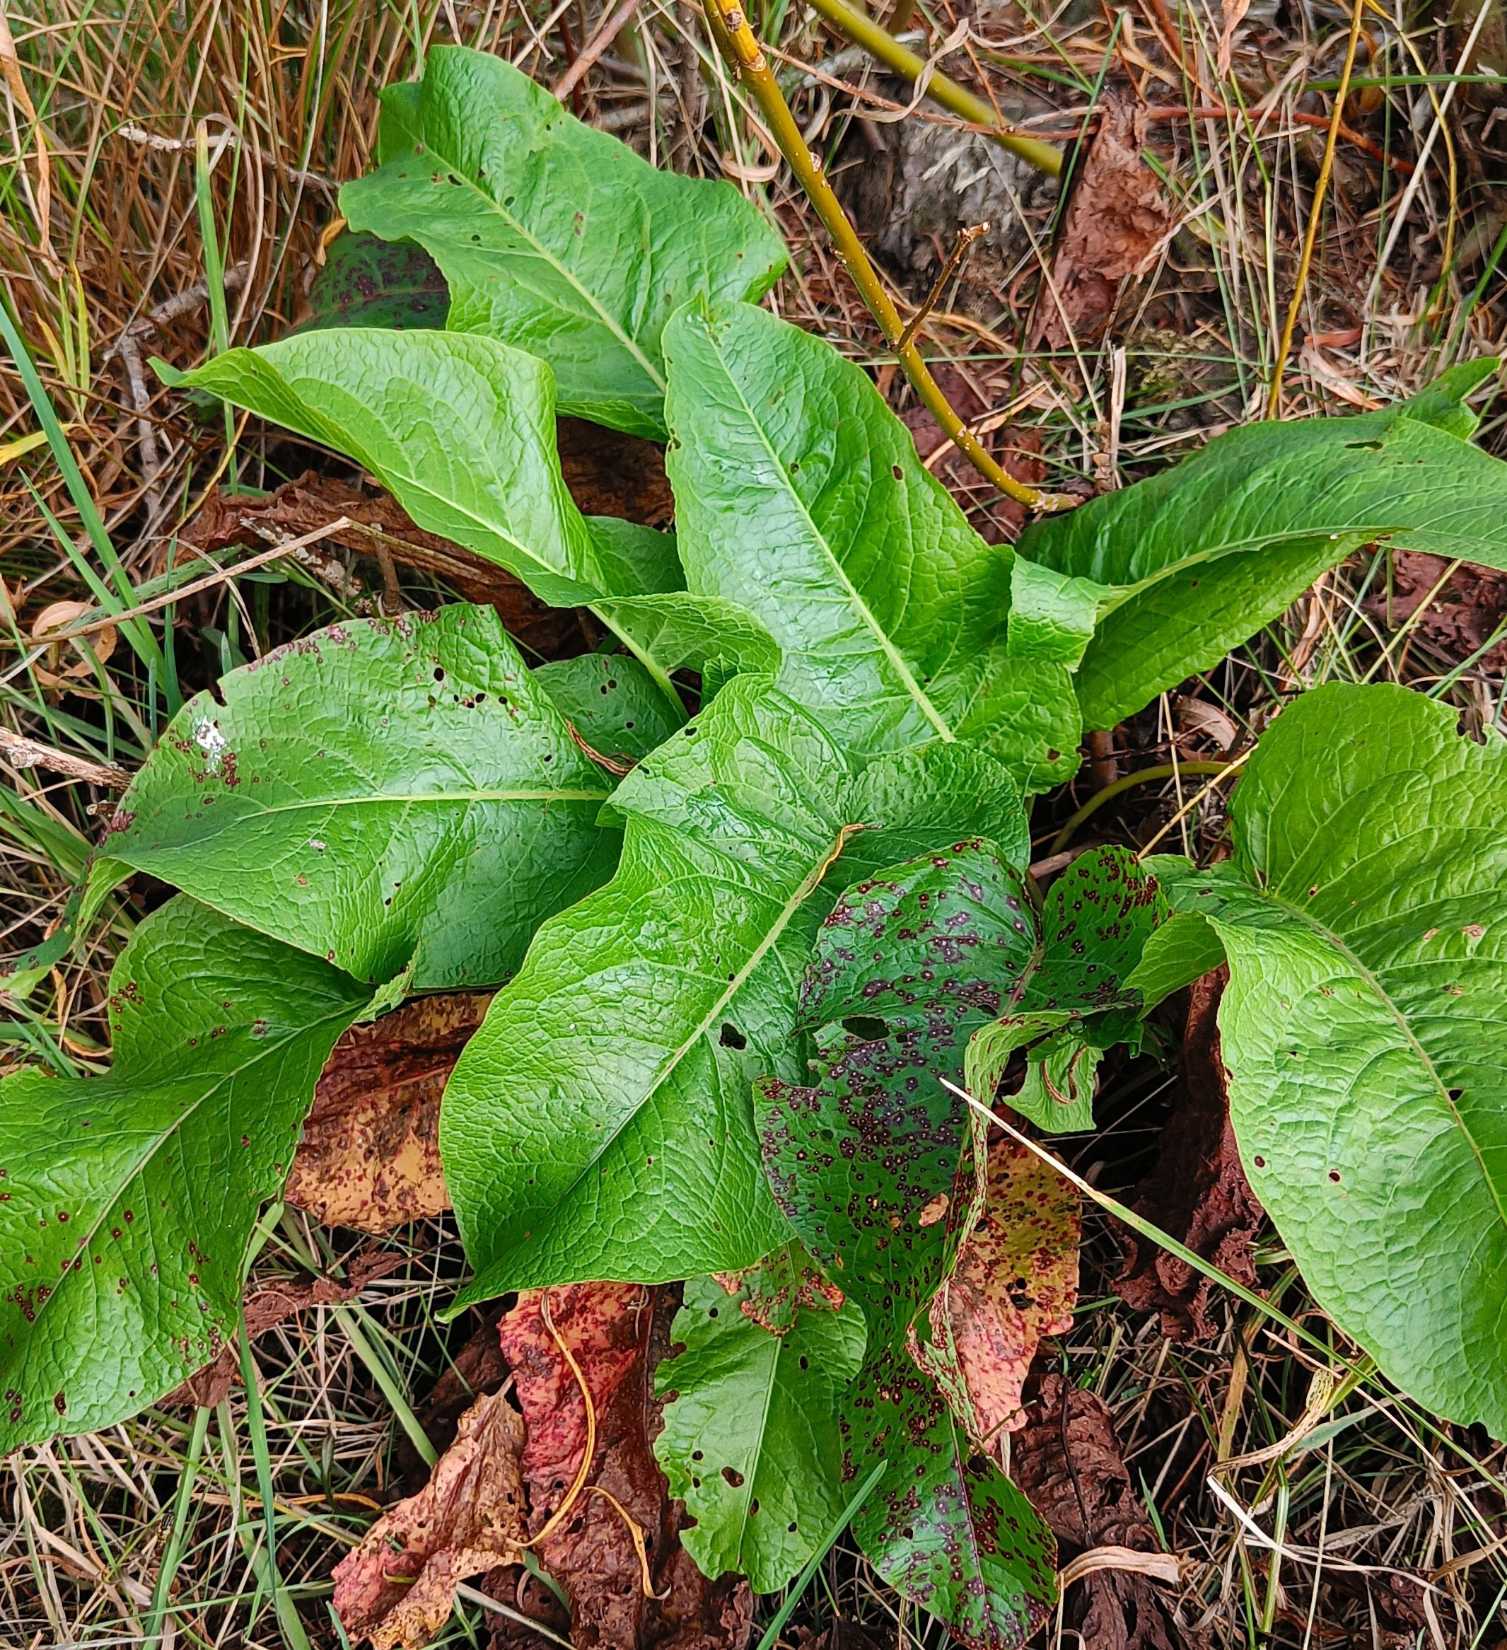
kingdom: Plantae
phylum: Tracheophyta
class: Magnoliopsida
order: Caryophyllales
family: Polygonaceae
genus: Rumex
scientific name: Rumex obtusifolius
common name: Butbladet skræppe
